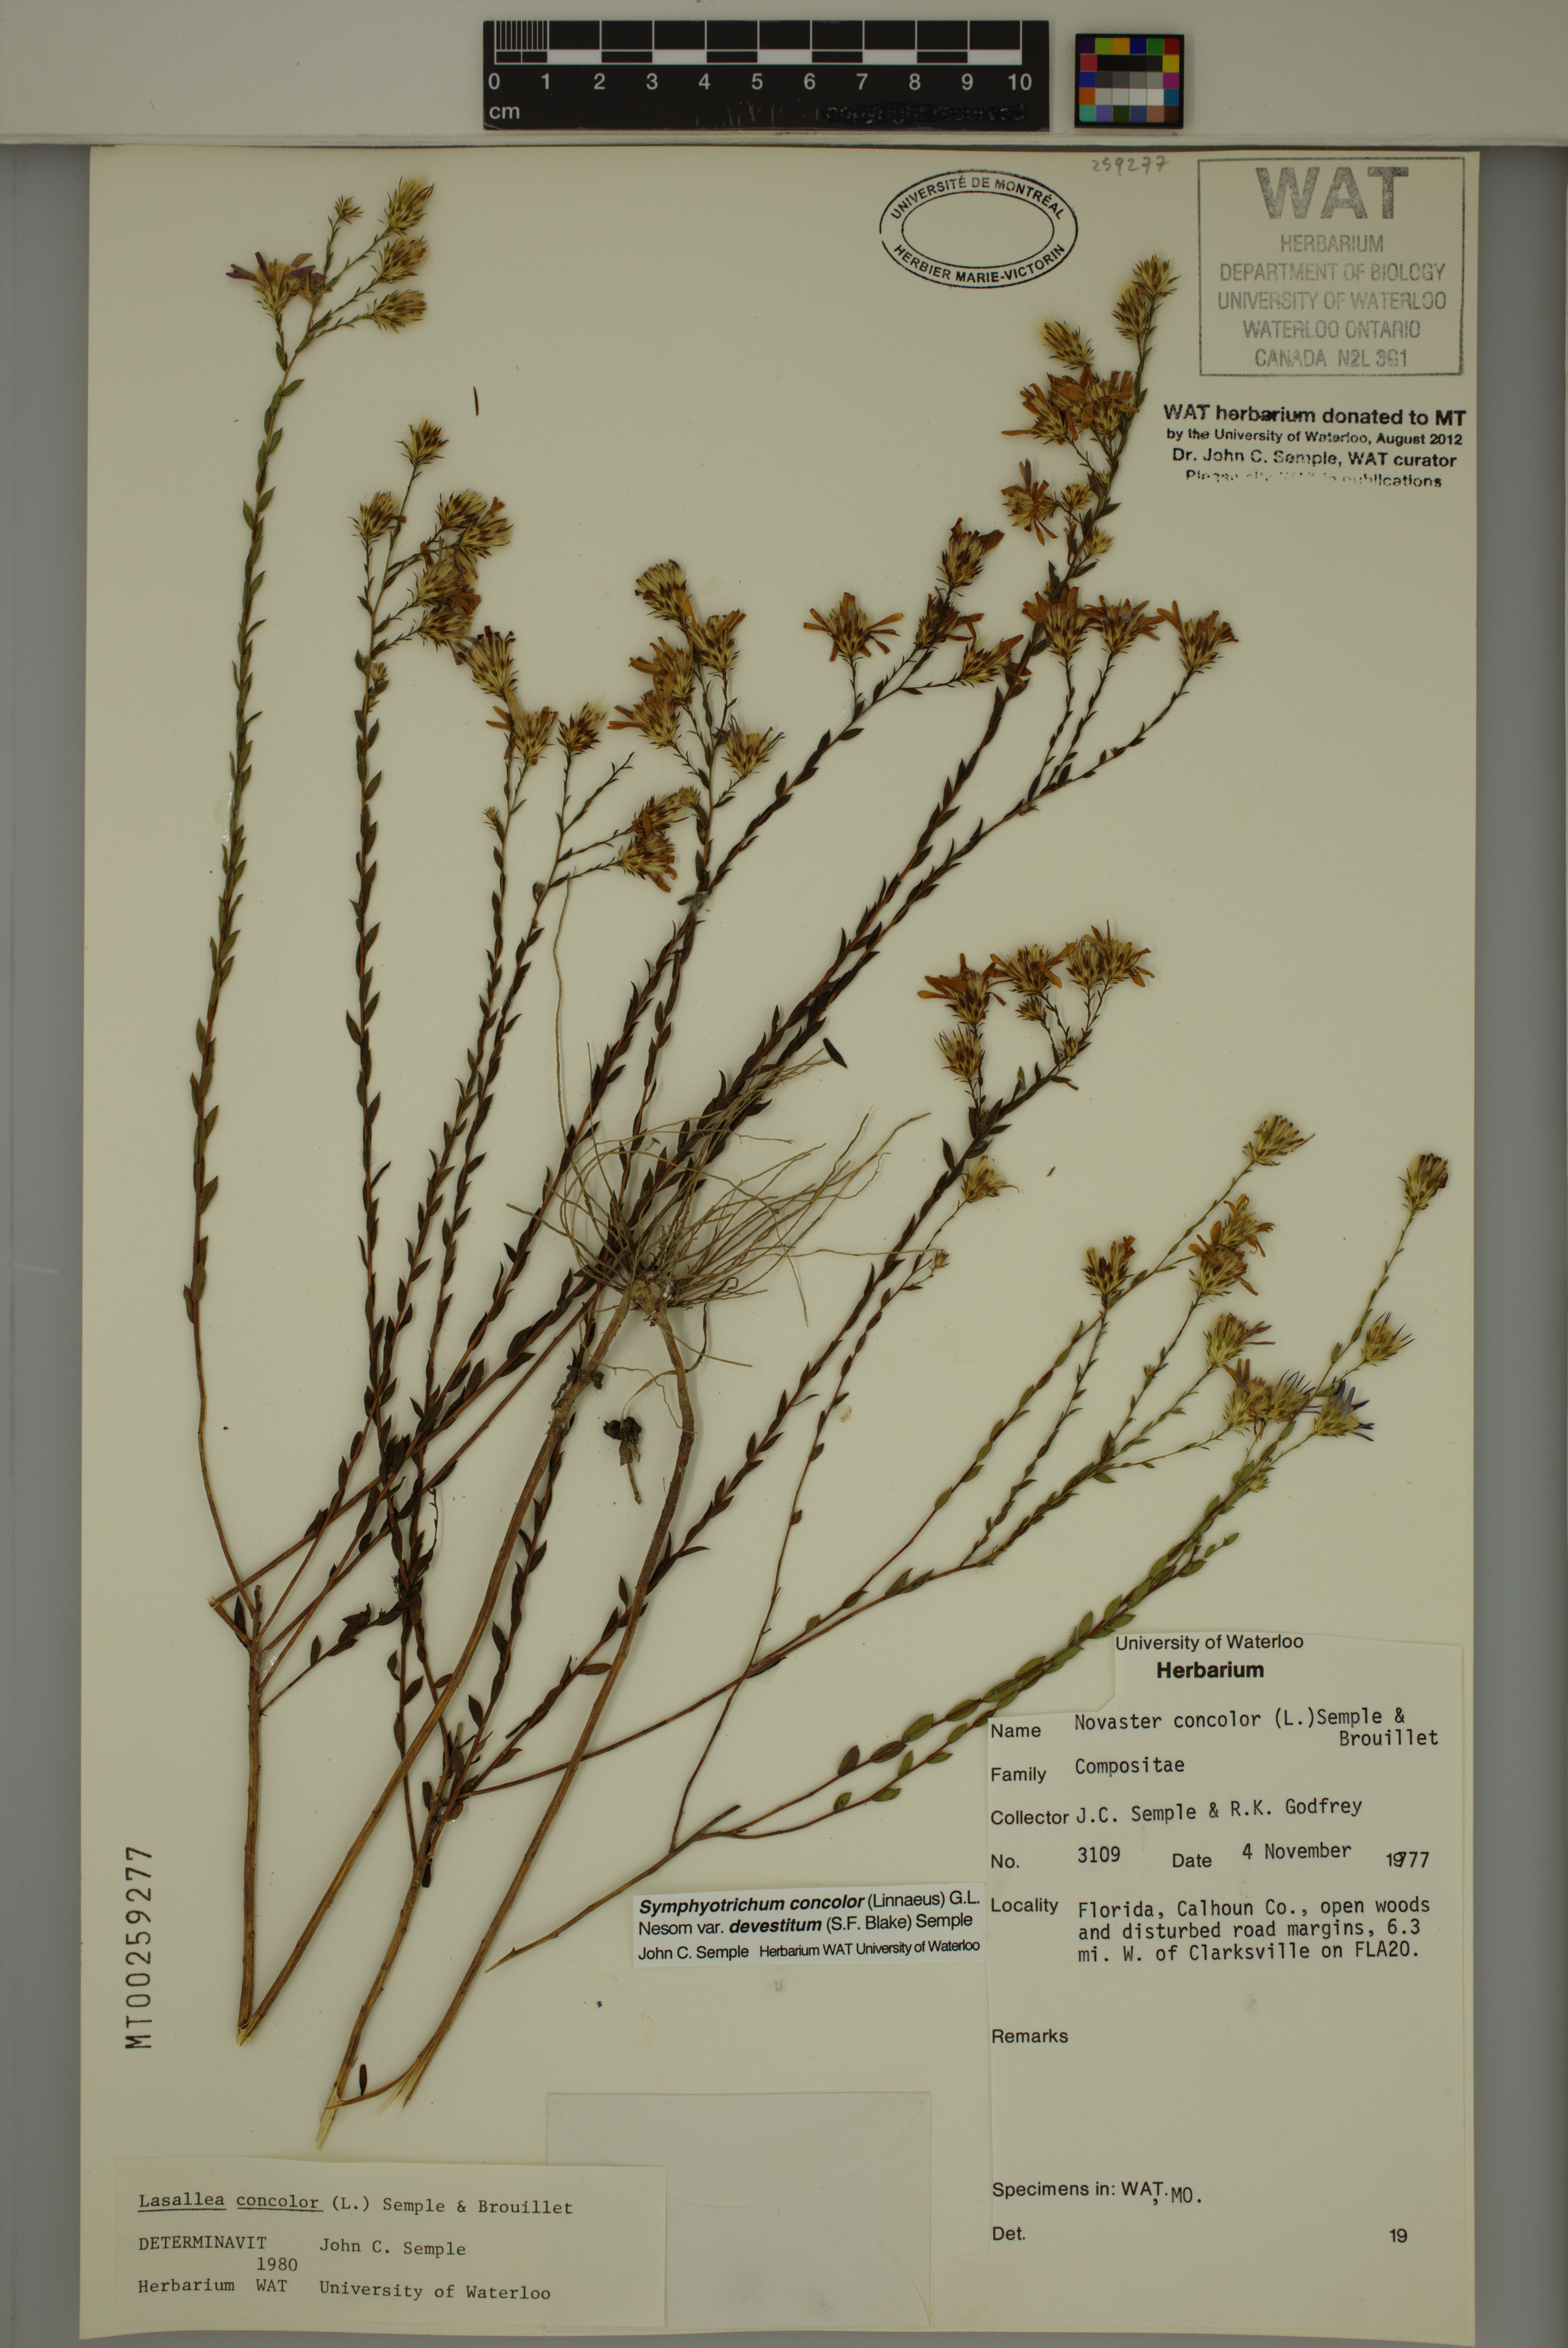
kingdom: Plantae
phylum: Tracheophyta
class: Magnoliopsida
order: Asterales
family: Asteraceae
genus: Symphyotrichum
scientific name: Symphyotrichum concolor
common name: Eastern silver aster
